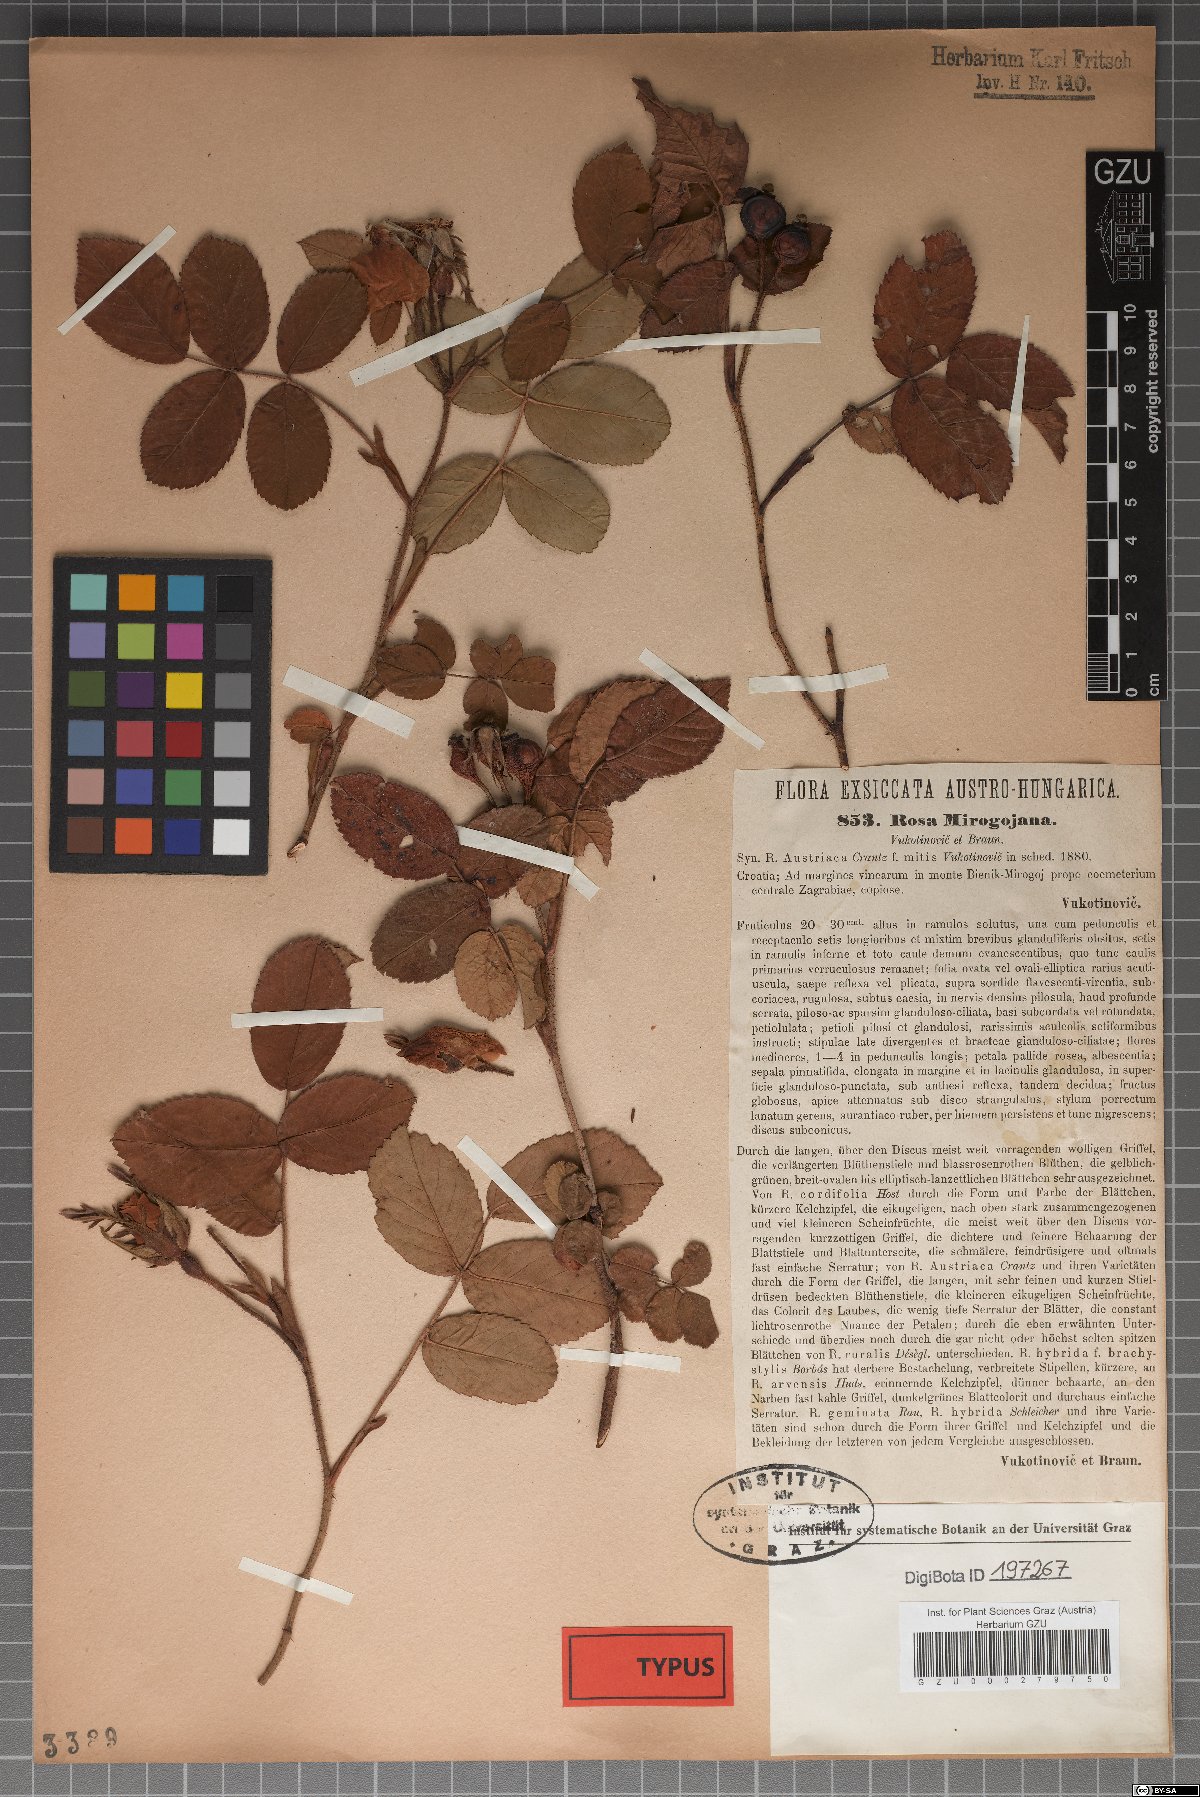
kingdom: Plantae
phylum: Tracheophyta
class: Magnoliopsida
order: Rosales
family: Rosaceae
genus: Rosa
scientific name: Rosa gallica
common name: French rose
